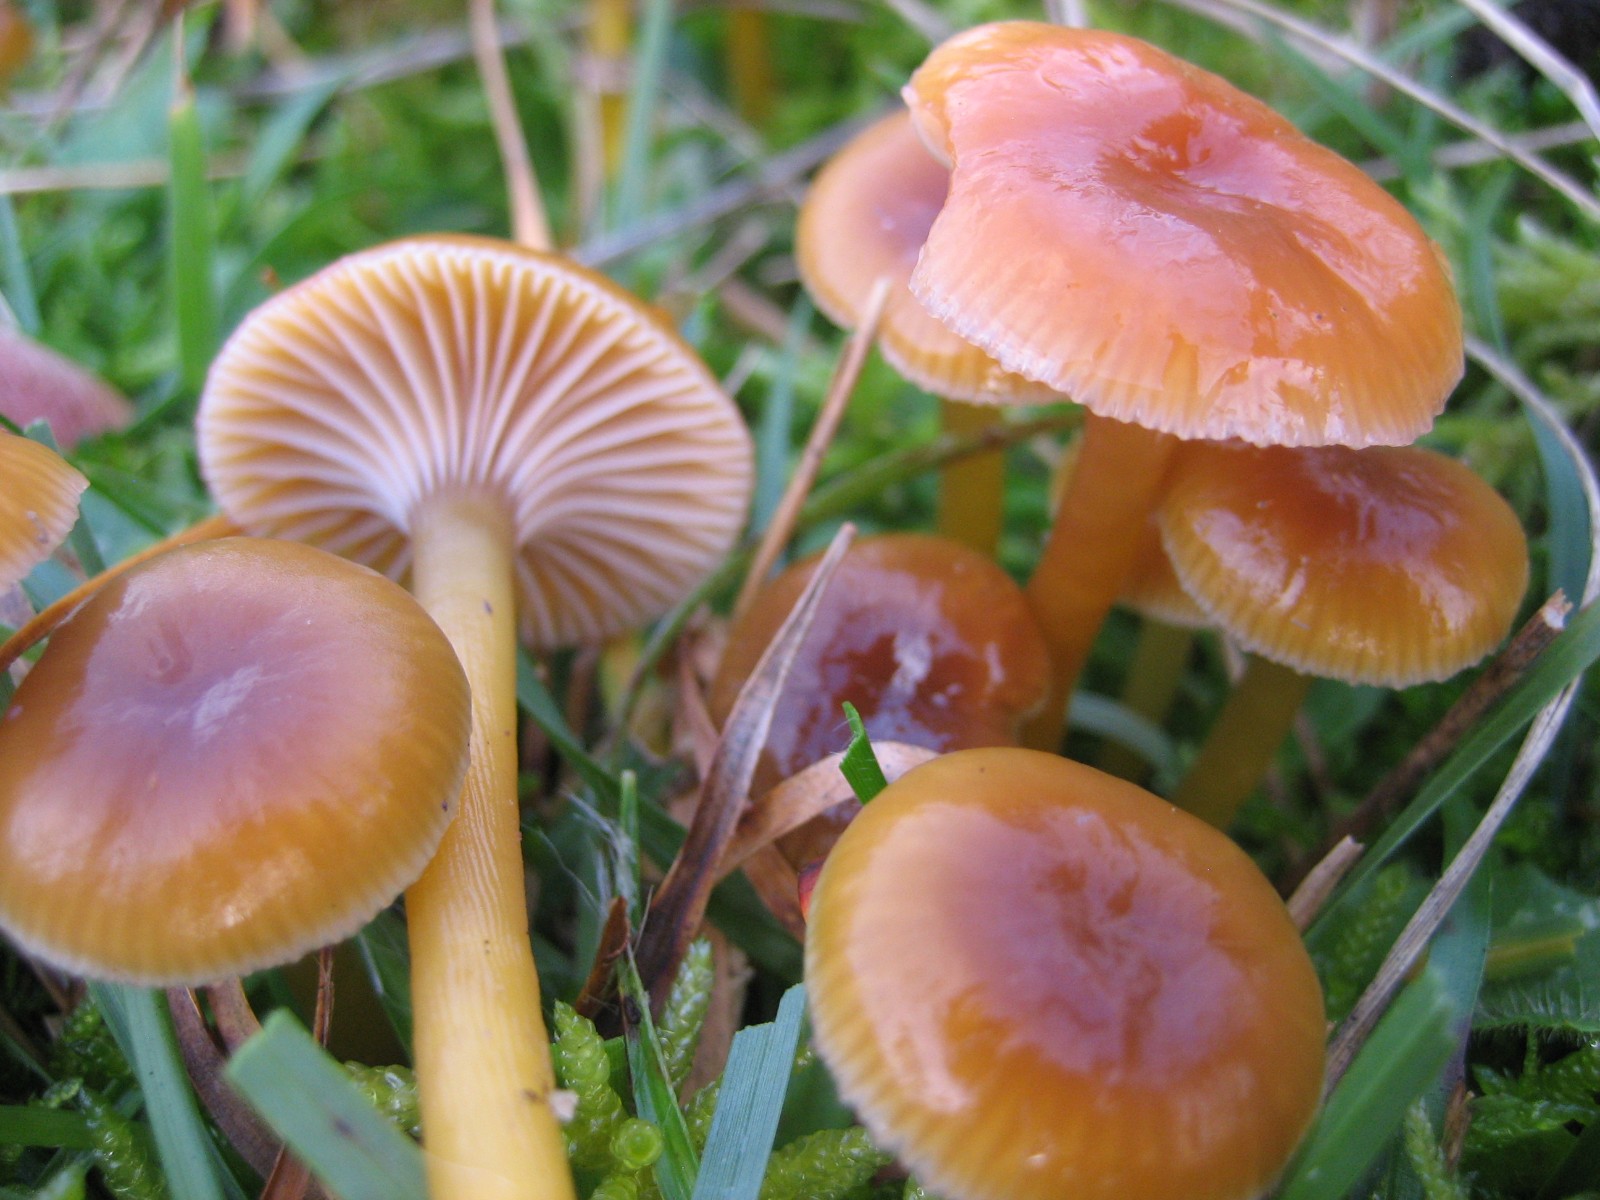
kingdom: Fungi
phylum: Basidiomycota
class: Agaricomycetes
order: Agaricales
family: Hygrophoraceae
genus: Gliophorus
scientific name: Gliophorus laetus
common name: brusk-vokshat
